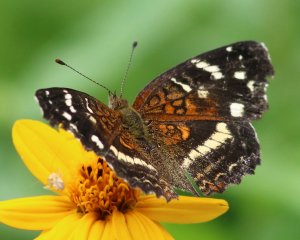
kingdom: Animalia
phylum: Arthropoda
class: Insecta
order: Lepidoptera
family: Nymphalidae
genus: Anthanassa
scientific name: Anthanassa argentea
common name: Chestnut Crescent
